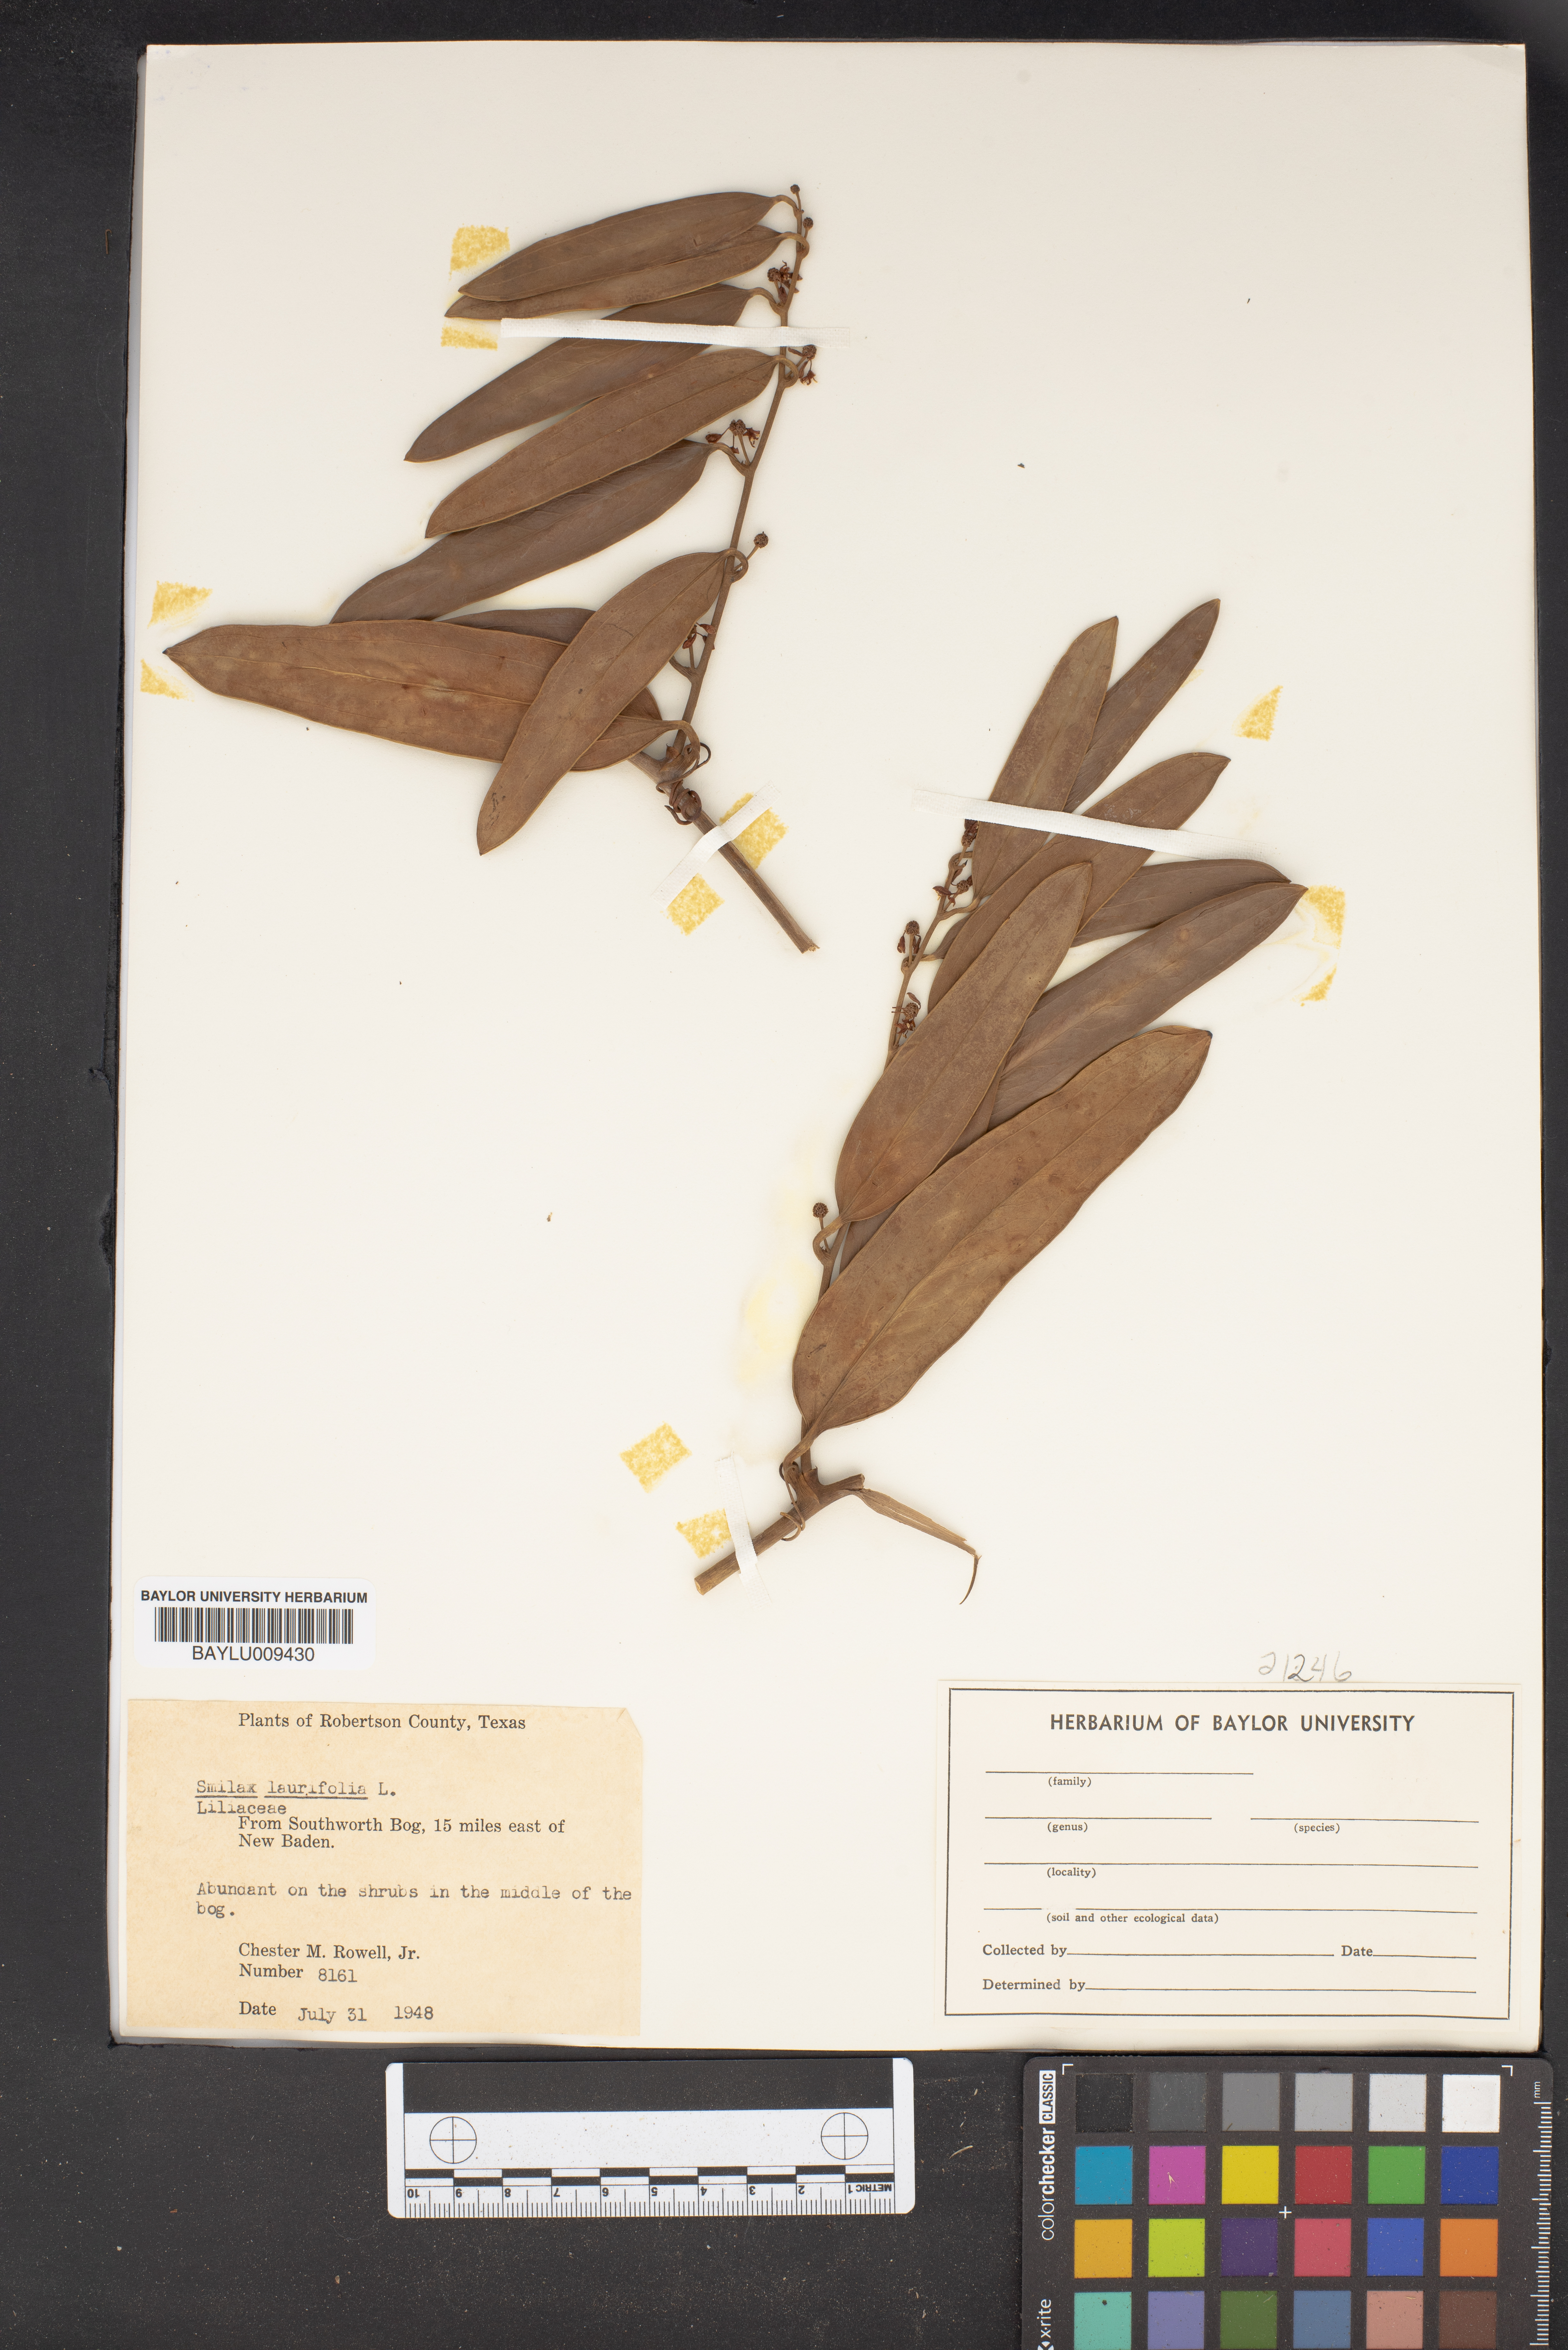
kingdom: Plantae
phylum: Tracheophyta
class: Liliopsida
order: Liliales
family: Smilacaceae
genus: Smilax
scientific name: Smilax laurifolia
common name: Bamboovine
